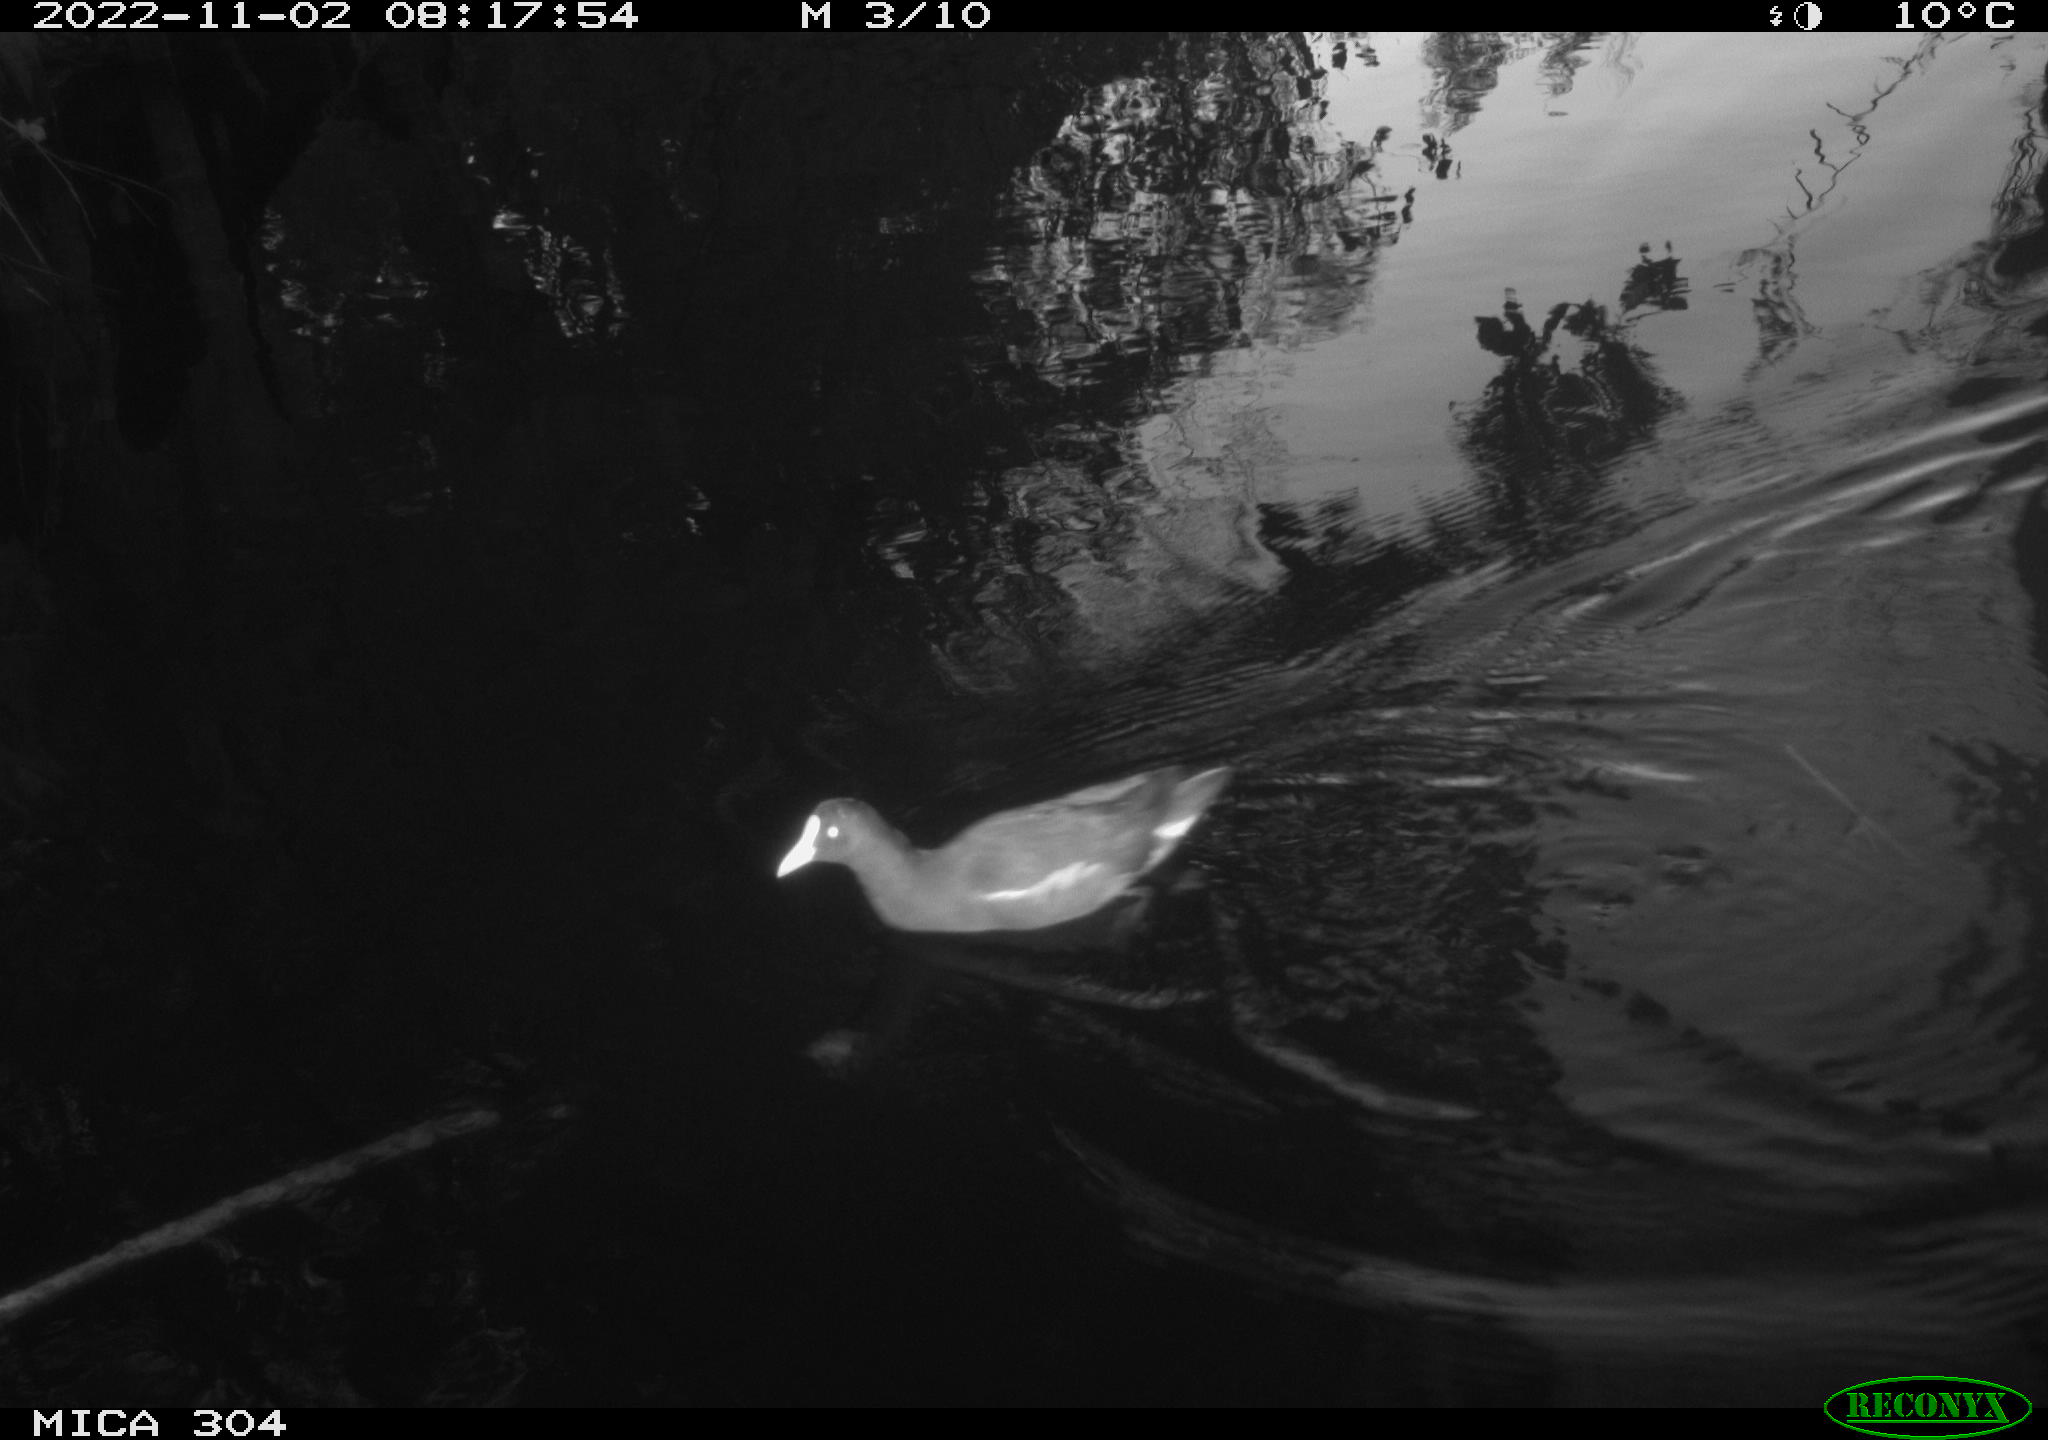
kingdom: Animalia
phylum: Chordata
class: Aves
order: Gruiformes
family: Rallidae
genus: Gallinula
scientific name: Gallinula chloropus
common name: Common moorhen
